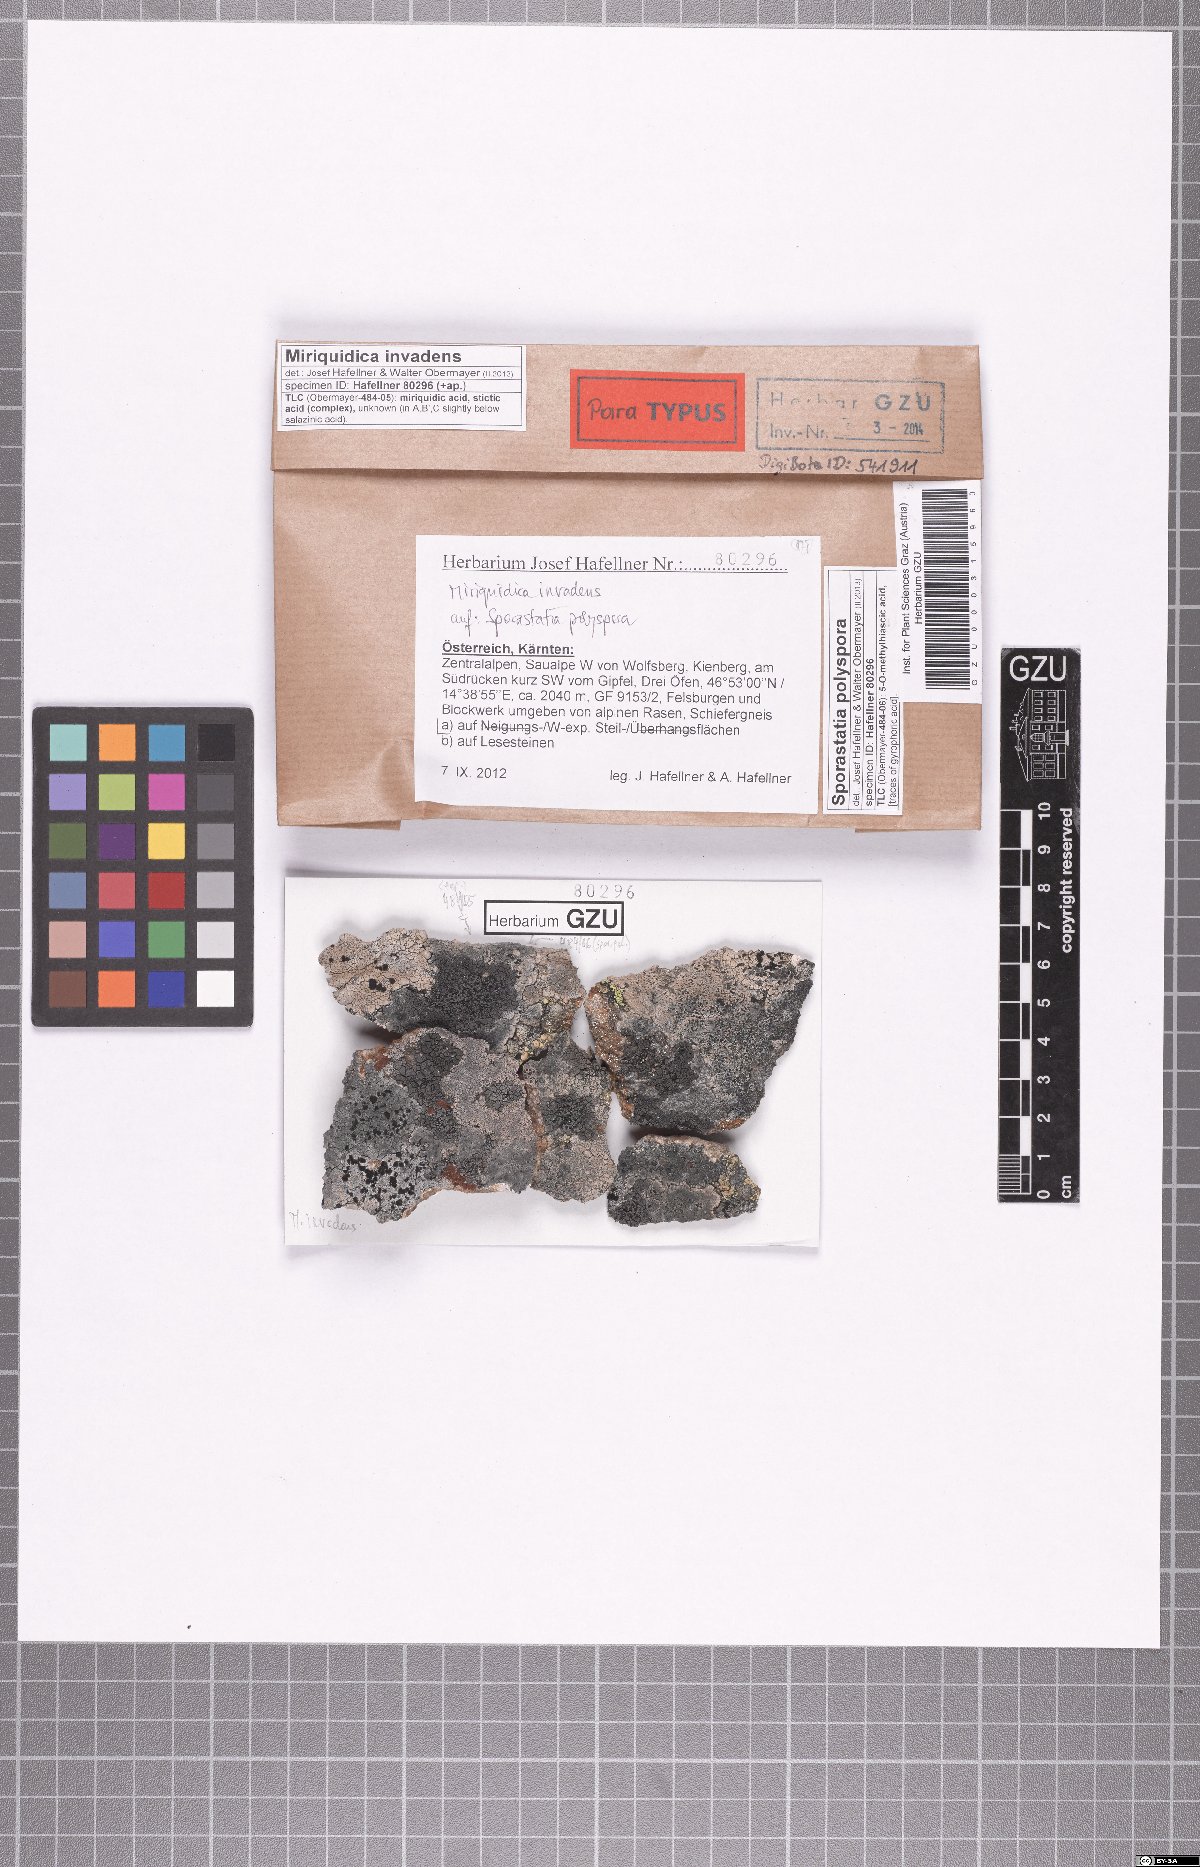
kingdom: Fungi
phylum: Ascomycota
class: Lecanoromycetes
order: Lecanorales
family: Lecanoraceae
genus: Miriquidica
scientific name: Miriquidica invadens
